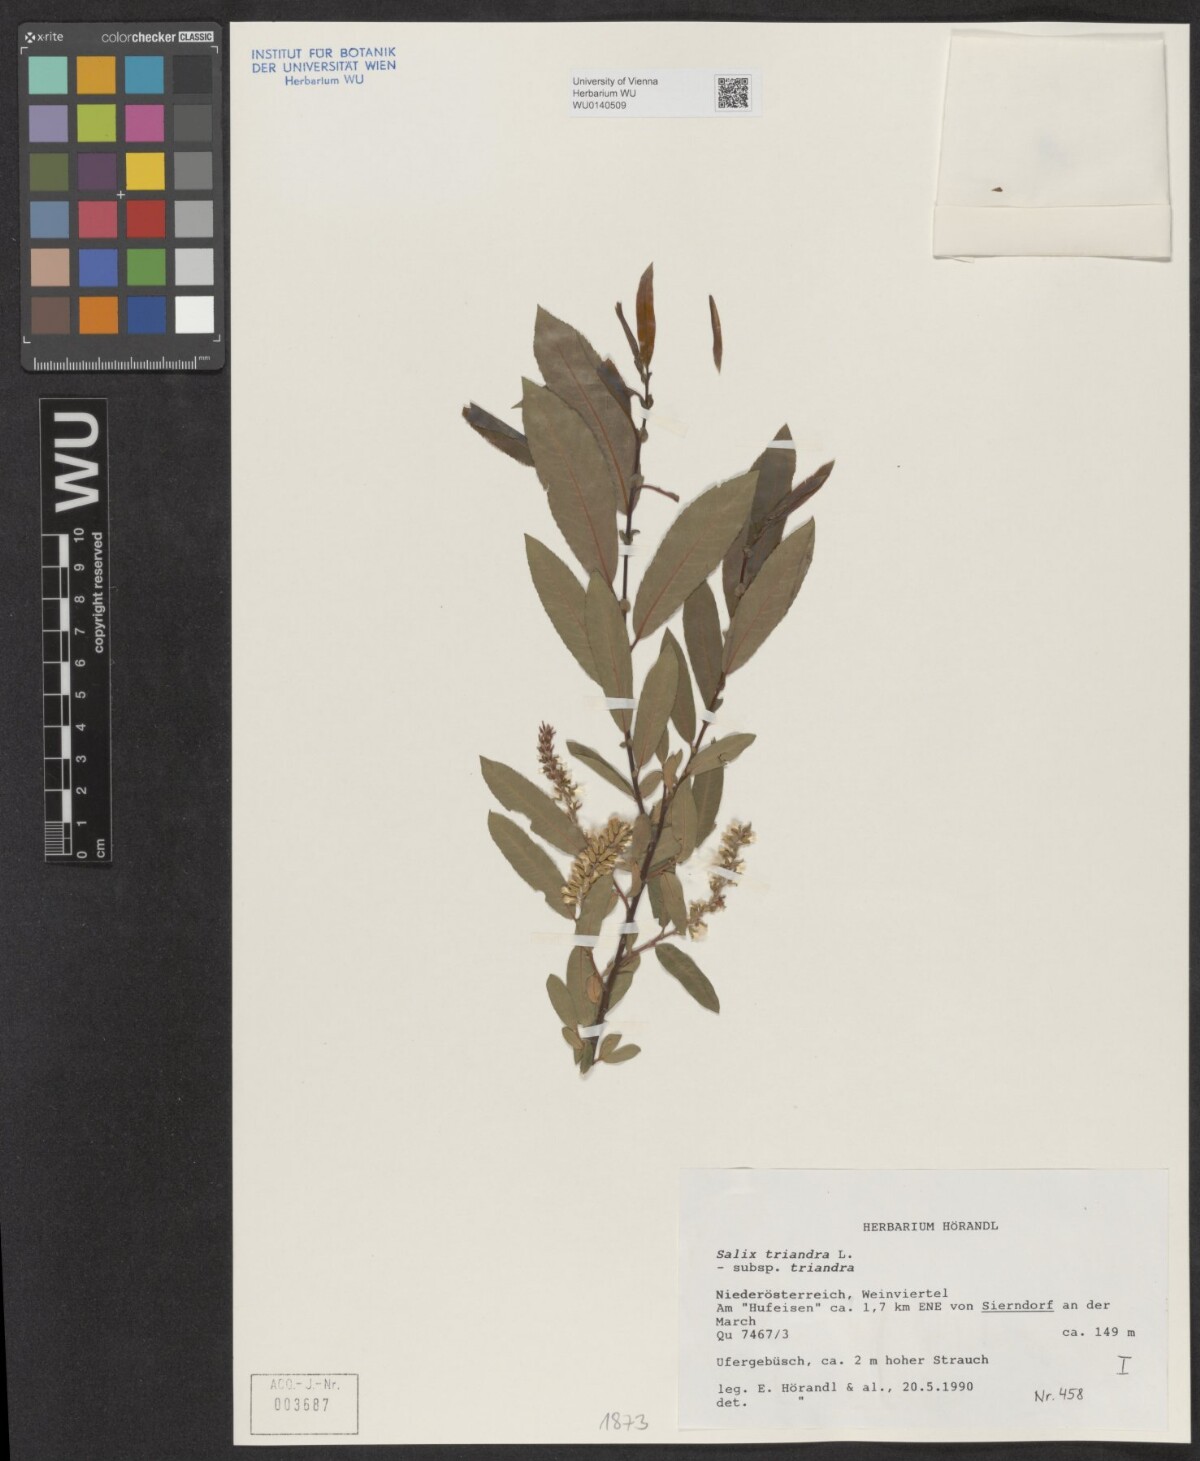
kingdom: Plantae
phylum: Tracheophyta
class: Magnoliopsida
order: Malpighiales
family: Salicaceae
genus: Salix
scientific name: Salix triandra
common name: Almond willow
